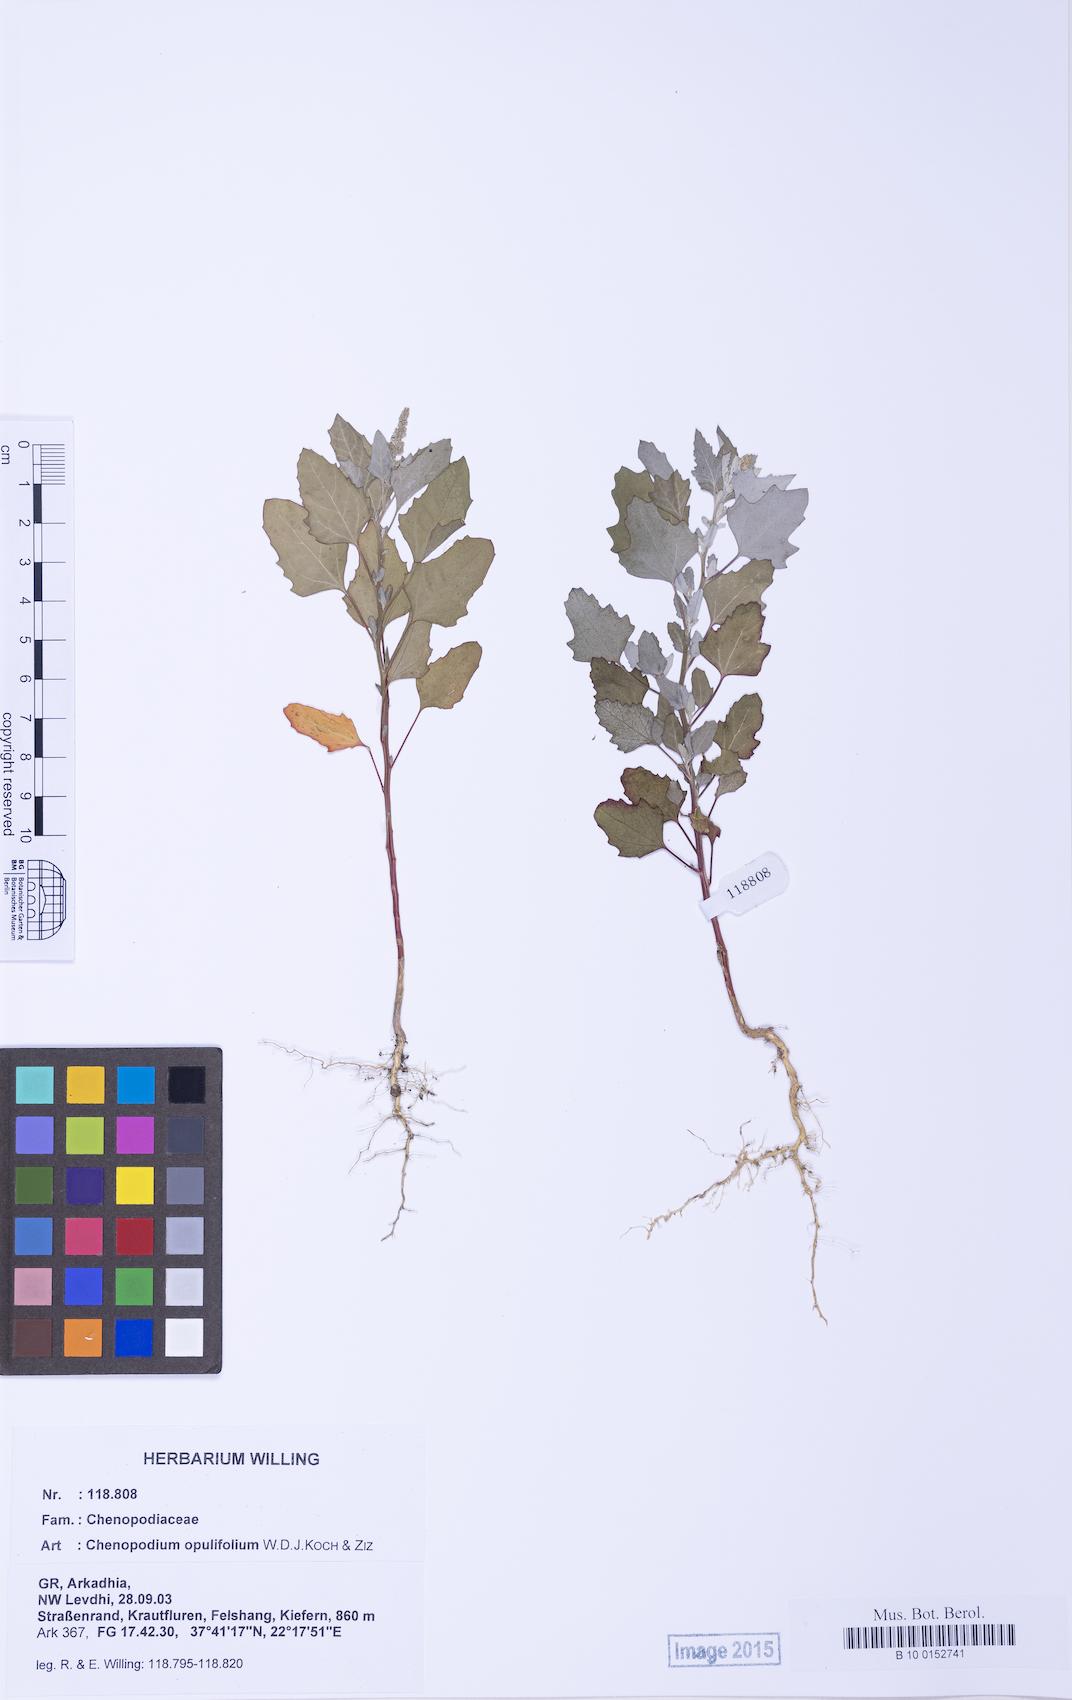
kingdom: Plantae
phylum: Tracheophyta
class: Magnoliopsida
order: Caryophyllales
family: Amaranthaceae
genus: Chenopodium
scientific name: Chenopodium album
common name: Fat-hen
